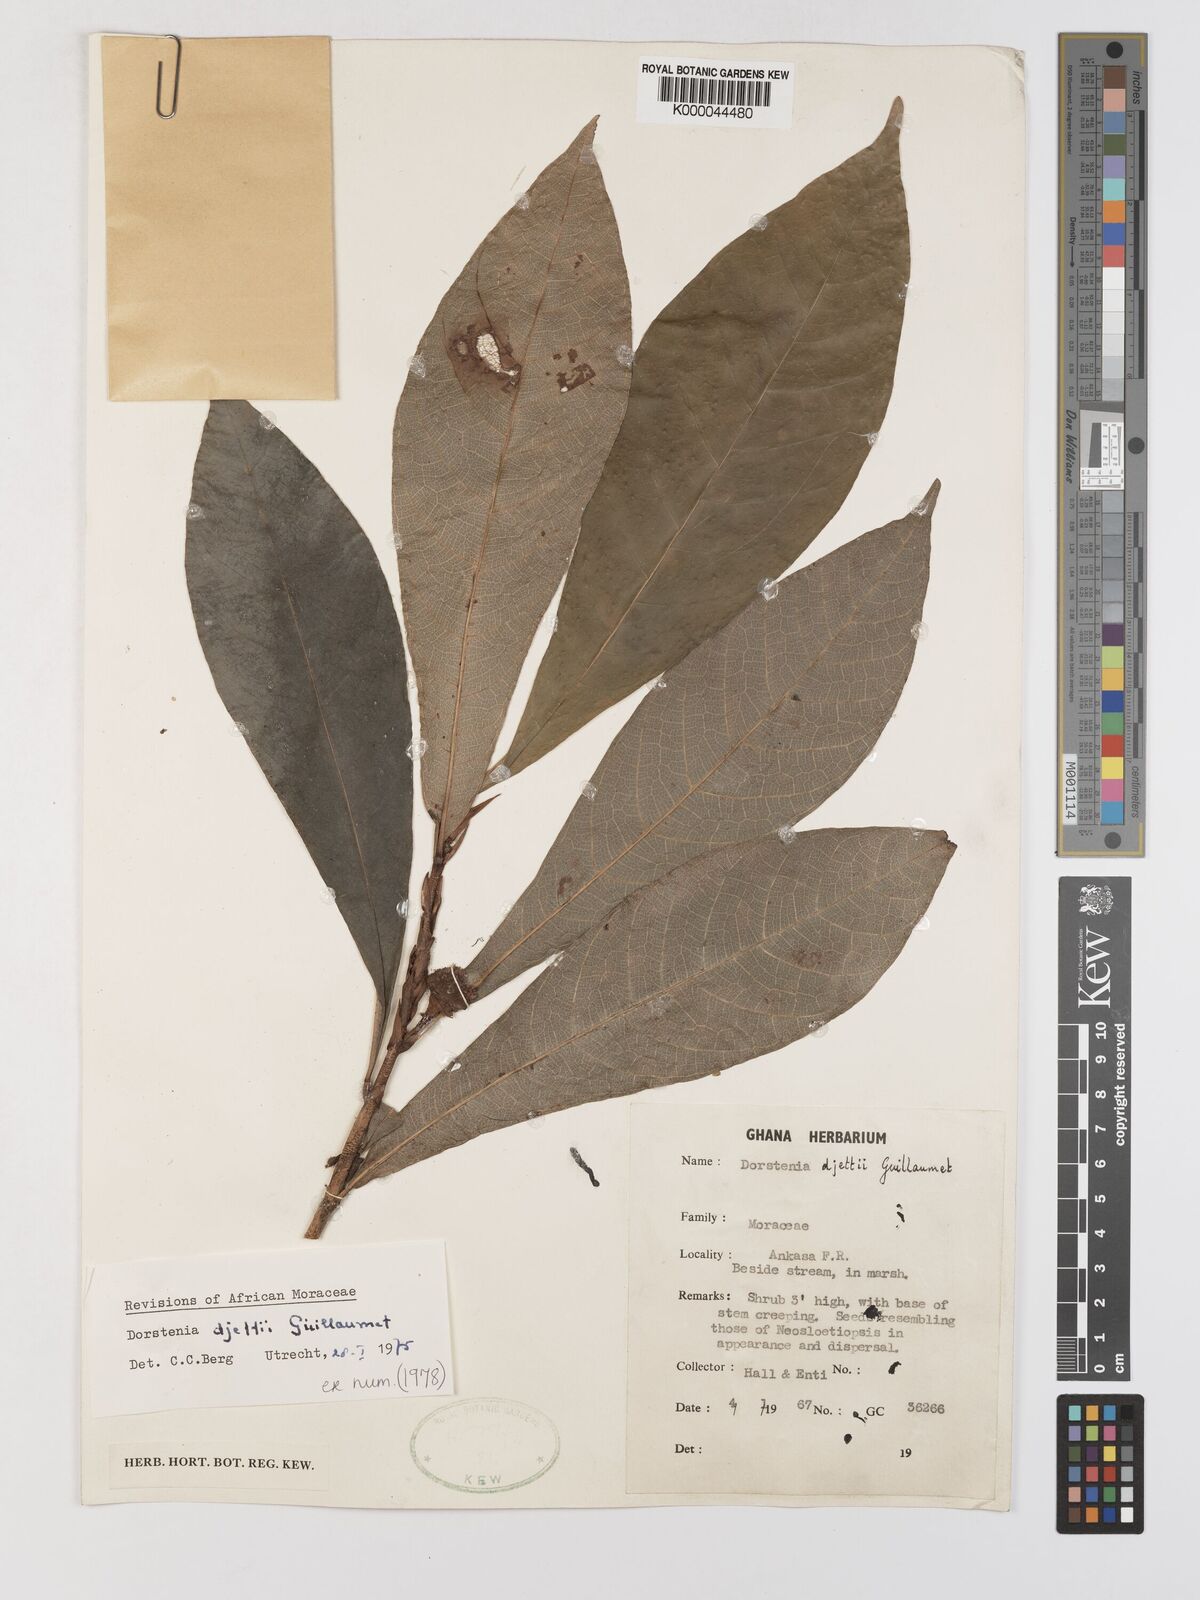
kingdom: Plantae
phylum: Tracheophyta
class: Magnoliopsida
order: Rosales
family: Moraceae
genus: Dorstenia
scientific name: Dorstenia djettii
